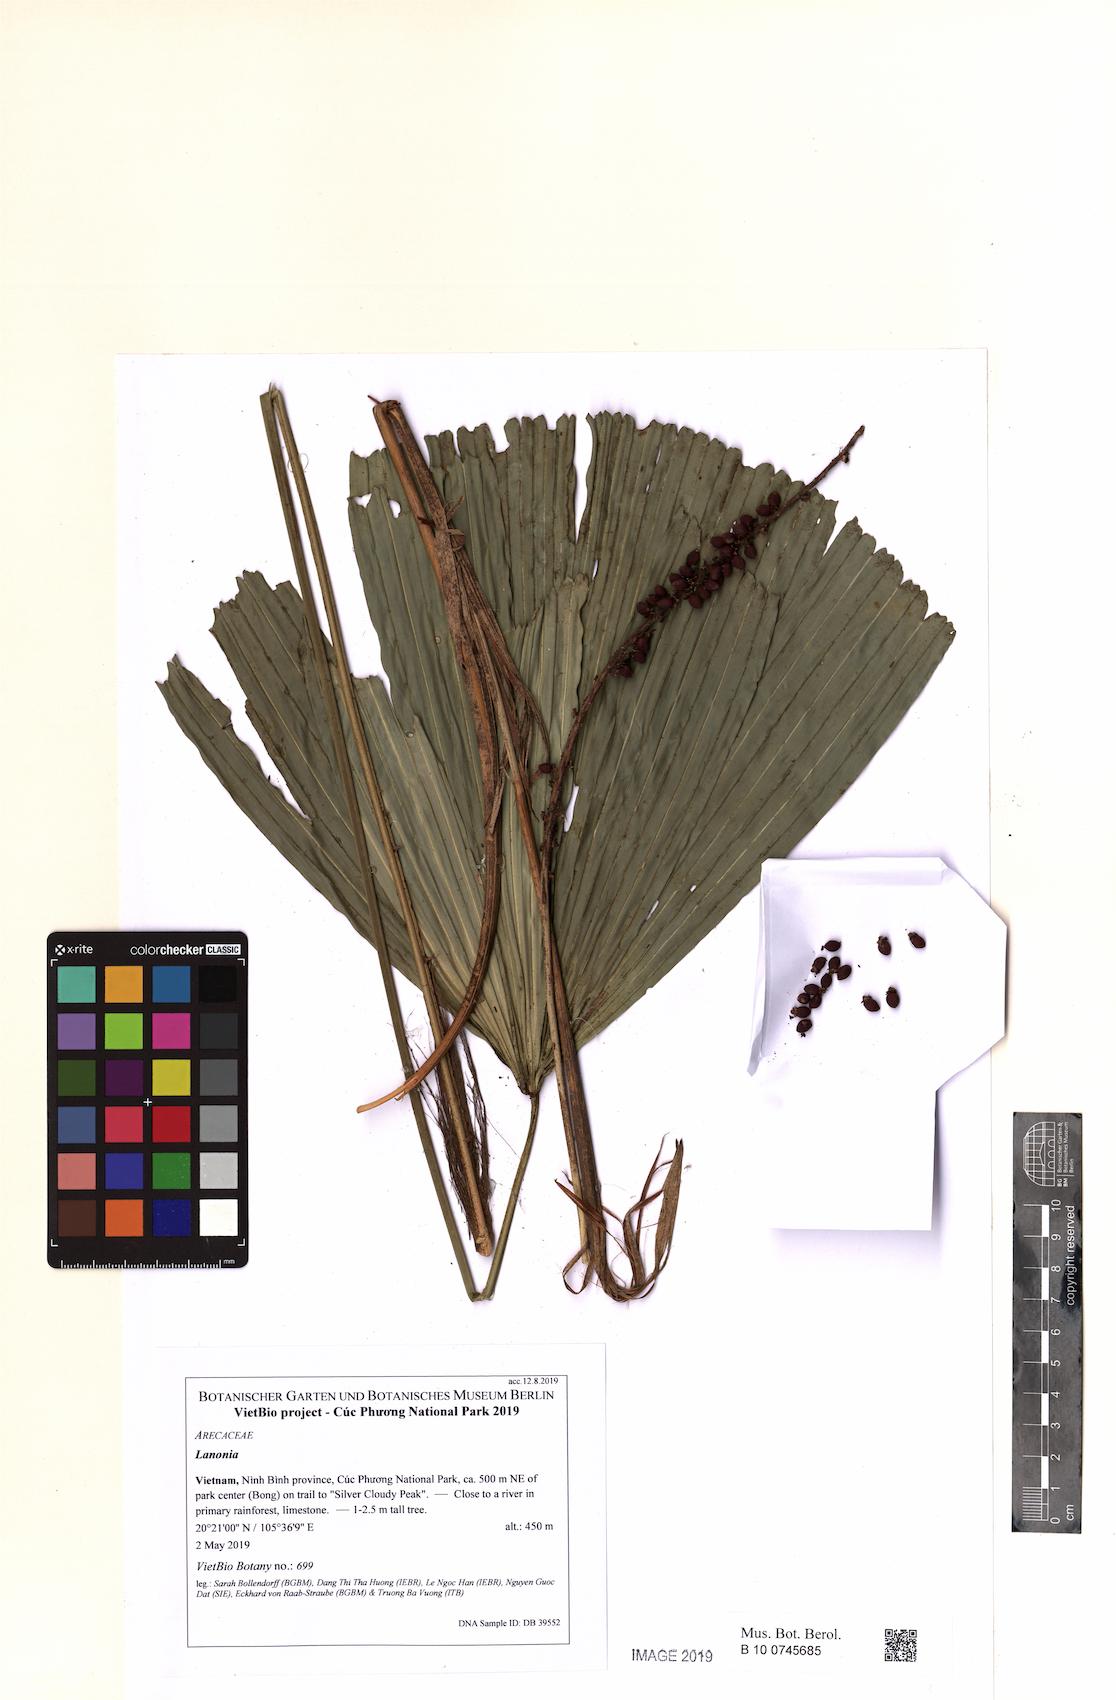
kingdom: Plantae
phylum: Tracheophyta
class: Liliopsida
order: Arecales
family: Arecaceae
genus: Lanonia
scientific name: Lanonia
